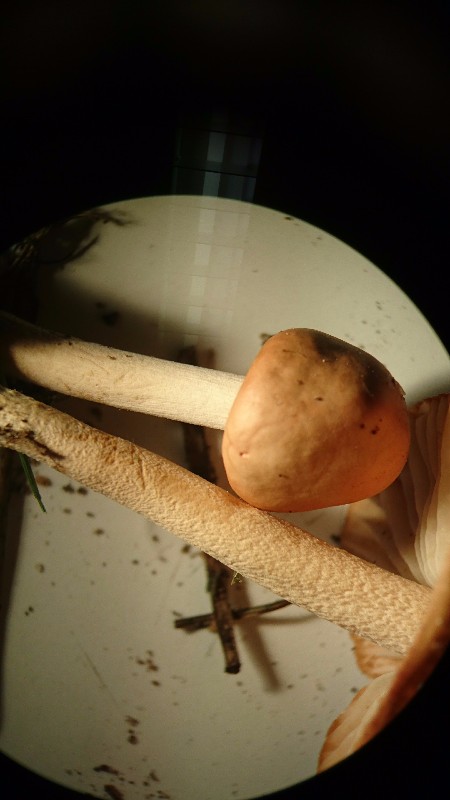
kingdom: Fungi
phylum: Basidiomycota
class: Agaricomycetes
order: Agaricales
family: Marasmiaceae
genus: Marasmius
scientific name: Marasmius oreades
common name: elledans-bruskhat
